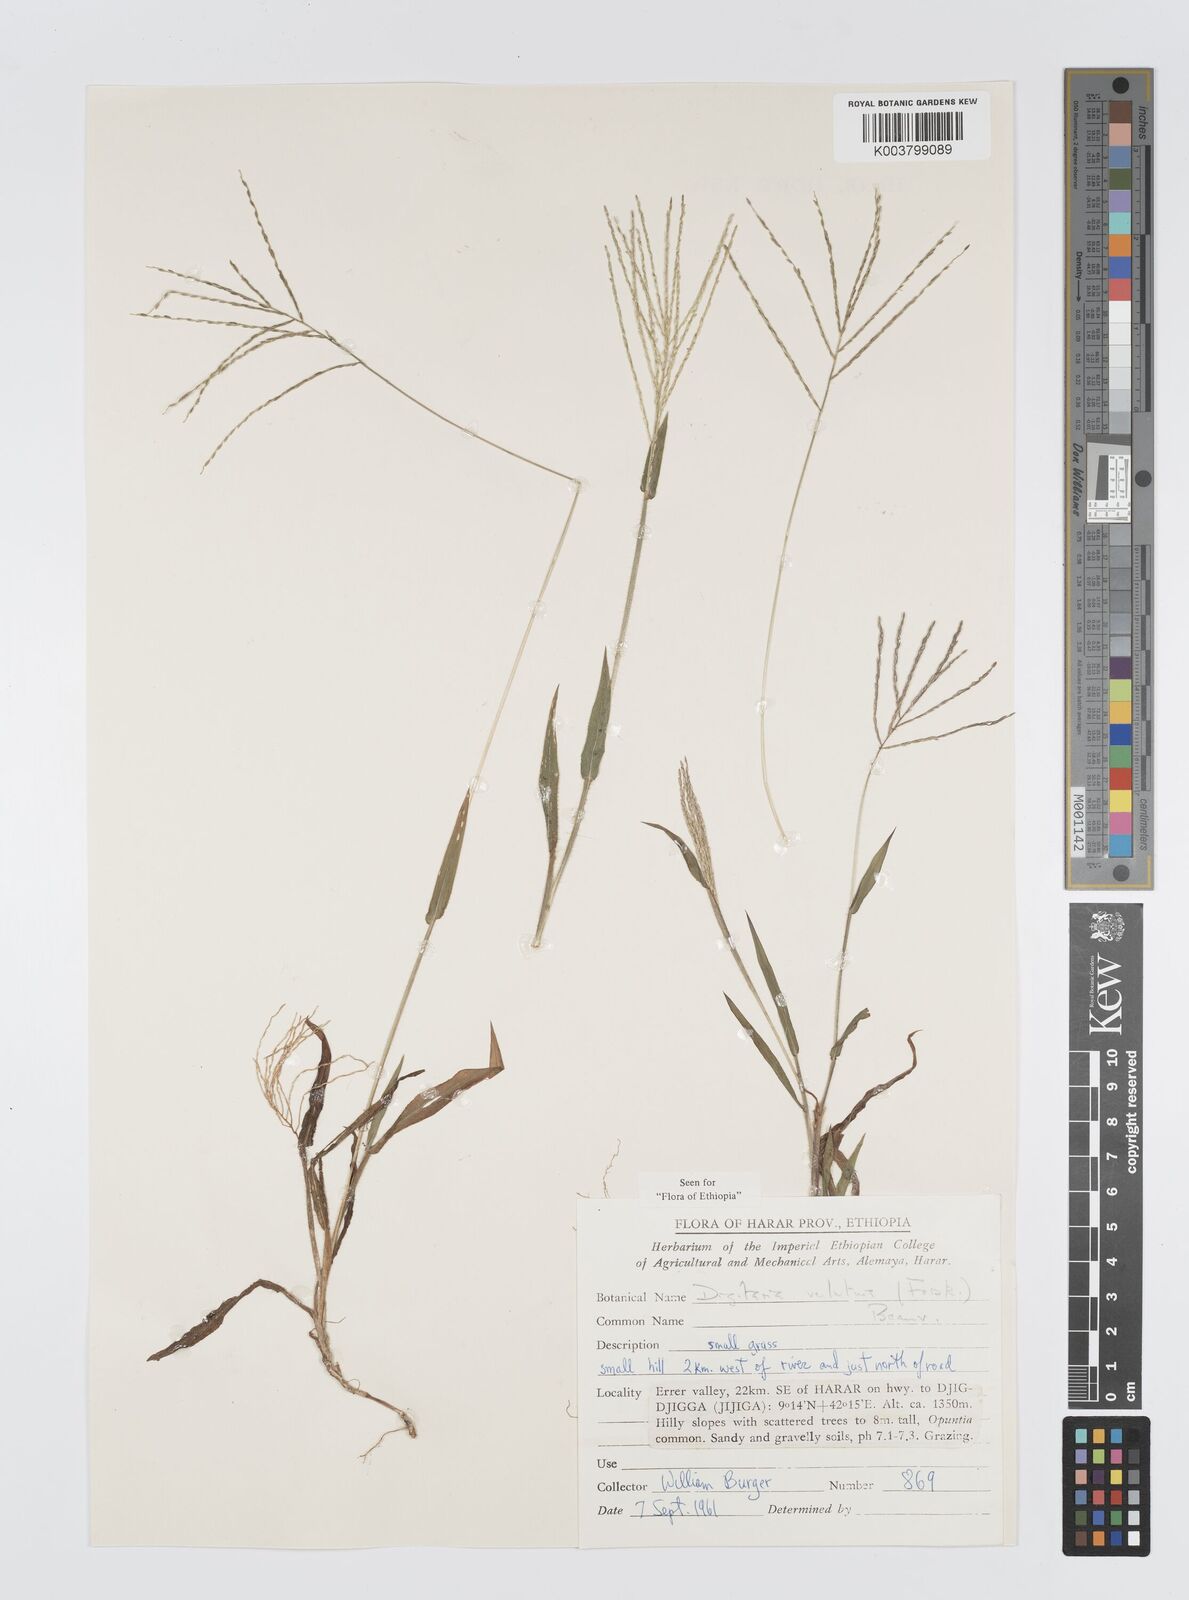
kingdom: Plantae
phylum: Tracheophyta
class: Liliopsida
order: Poales
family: Poaceae
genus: Digitaria
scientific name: Digitaria velutina
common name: Long-plume finger grass
